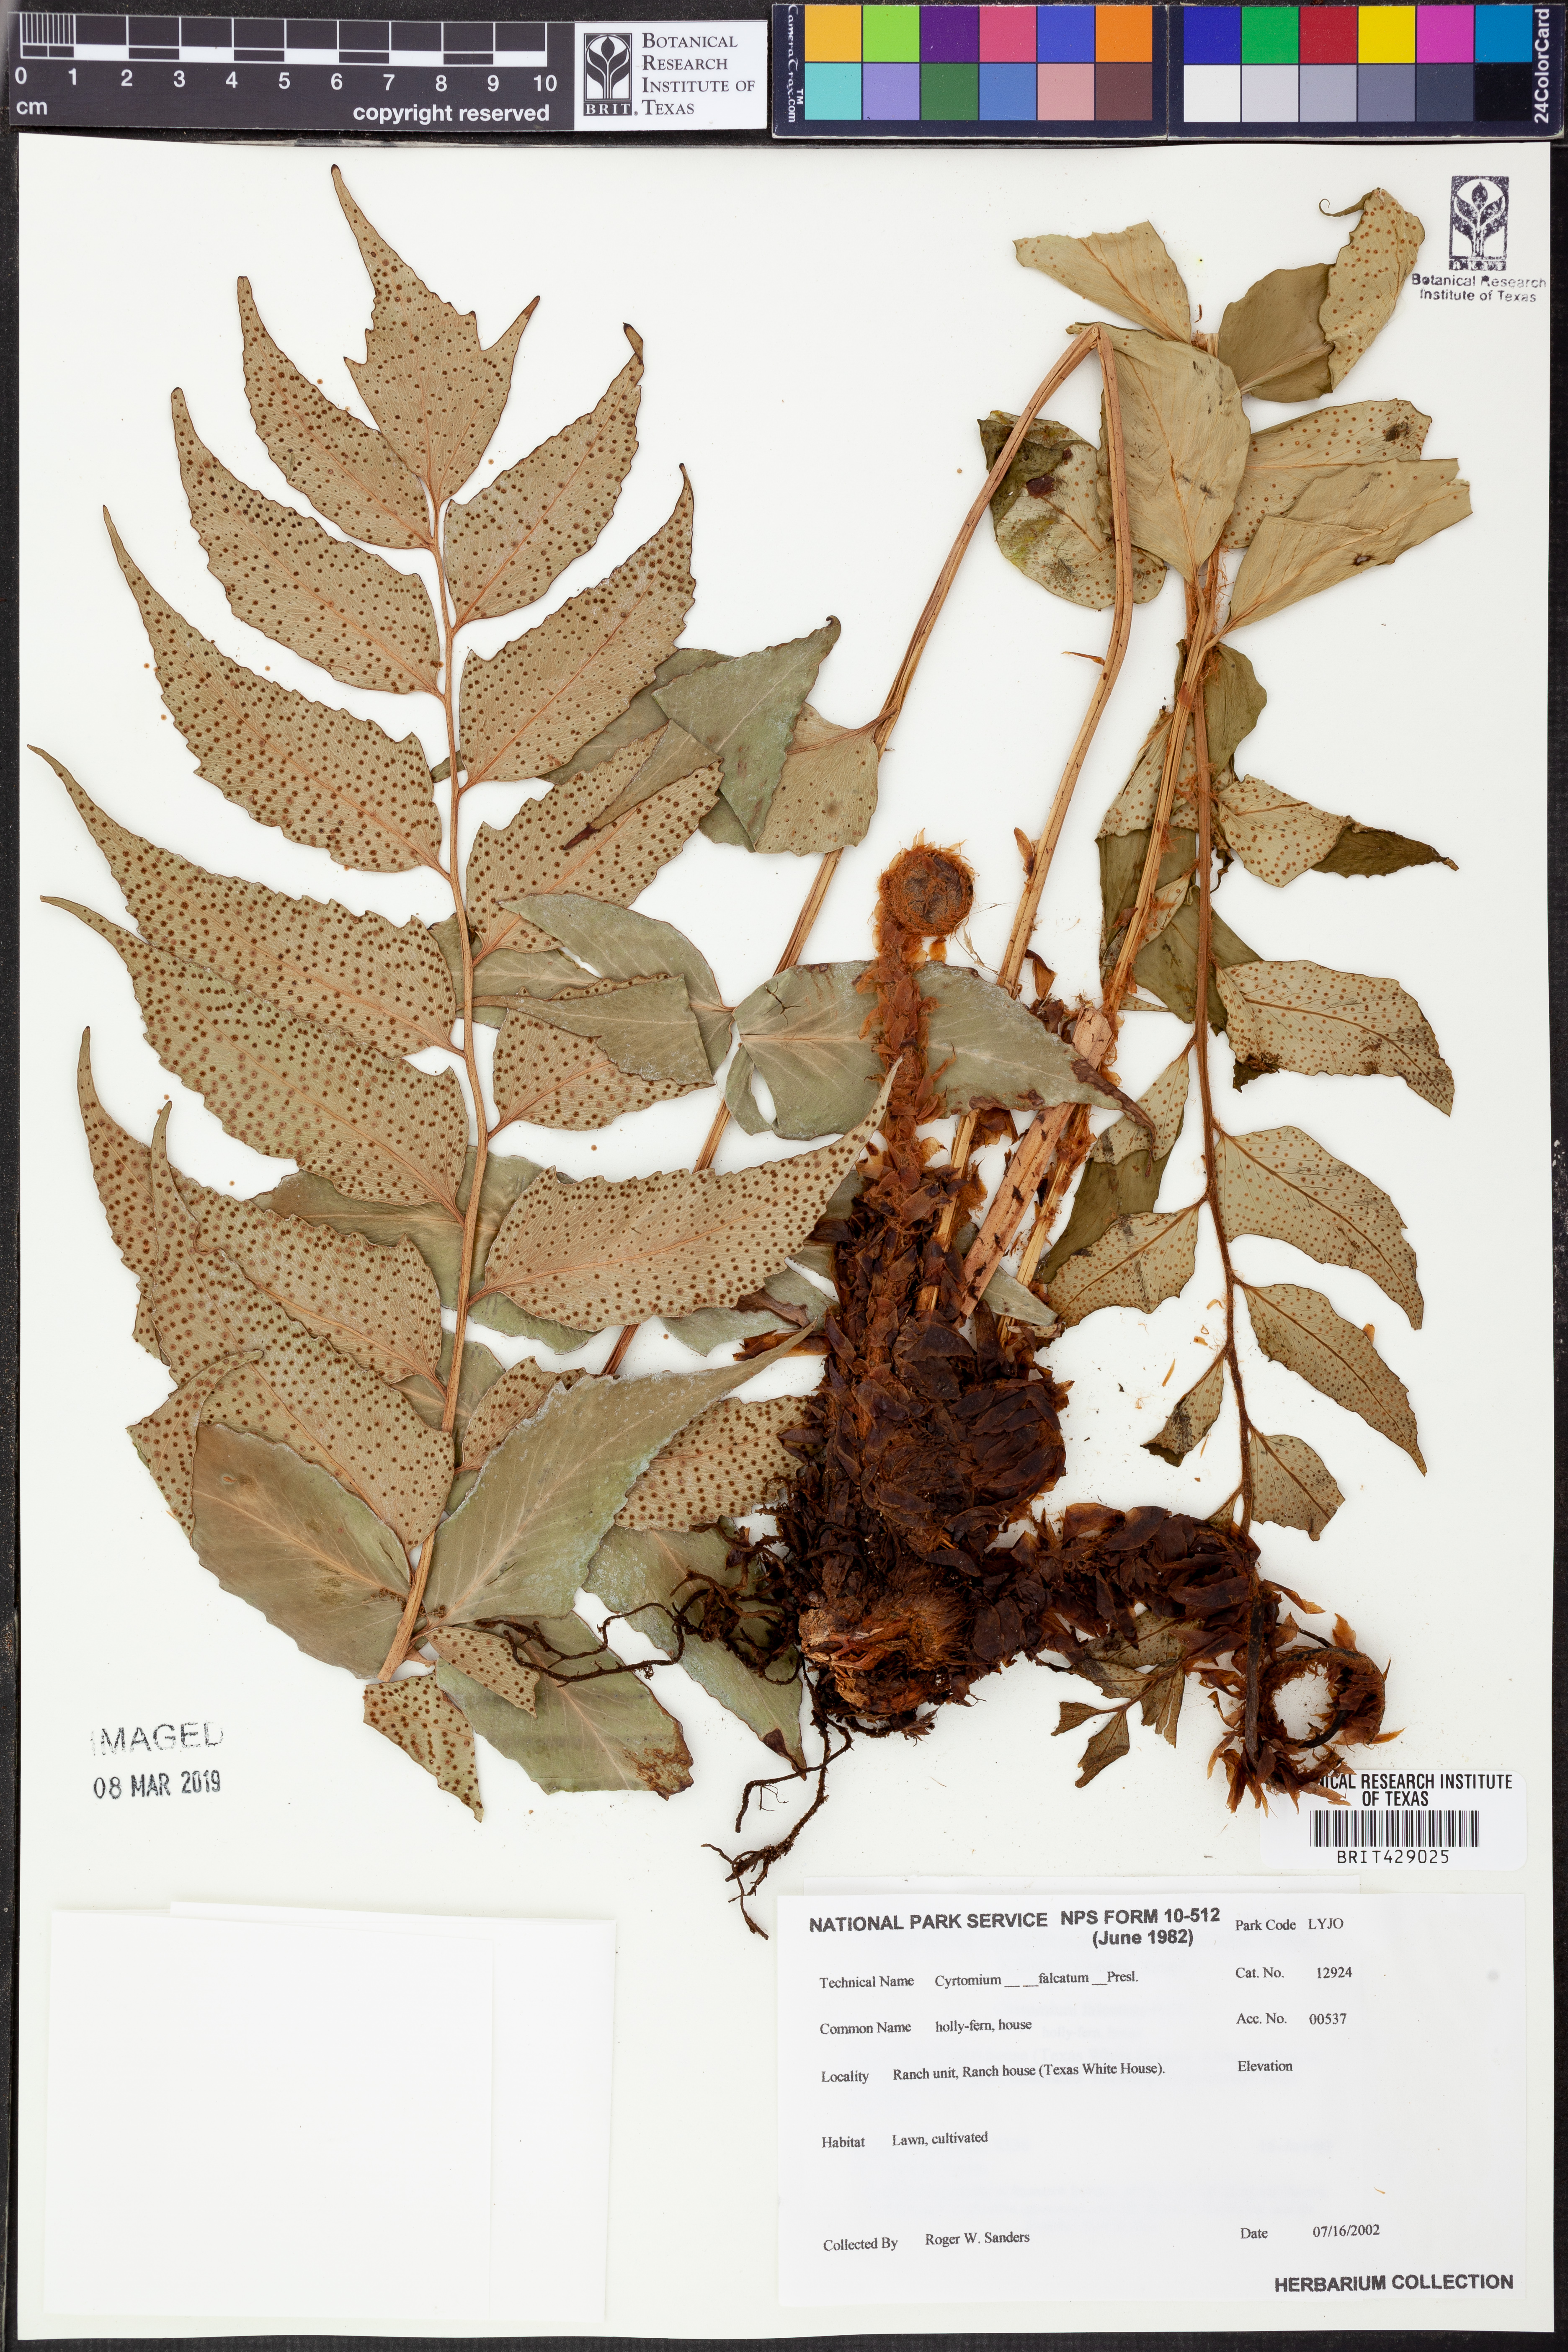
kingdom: Plantae
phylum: Tracheophyta
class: Polypodiopsida
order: Polypodiales
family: Dryopteridaceae
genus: Cyrtomium
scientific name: Cyrtomium falcatum
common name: House holly-fern
